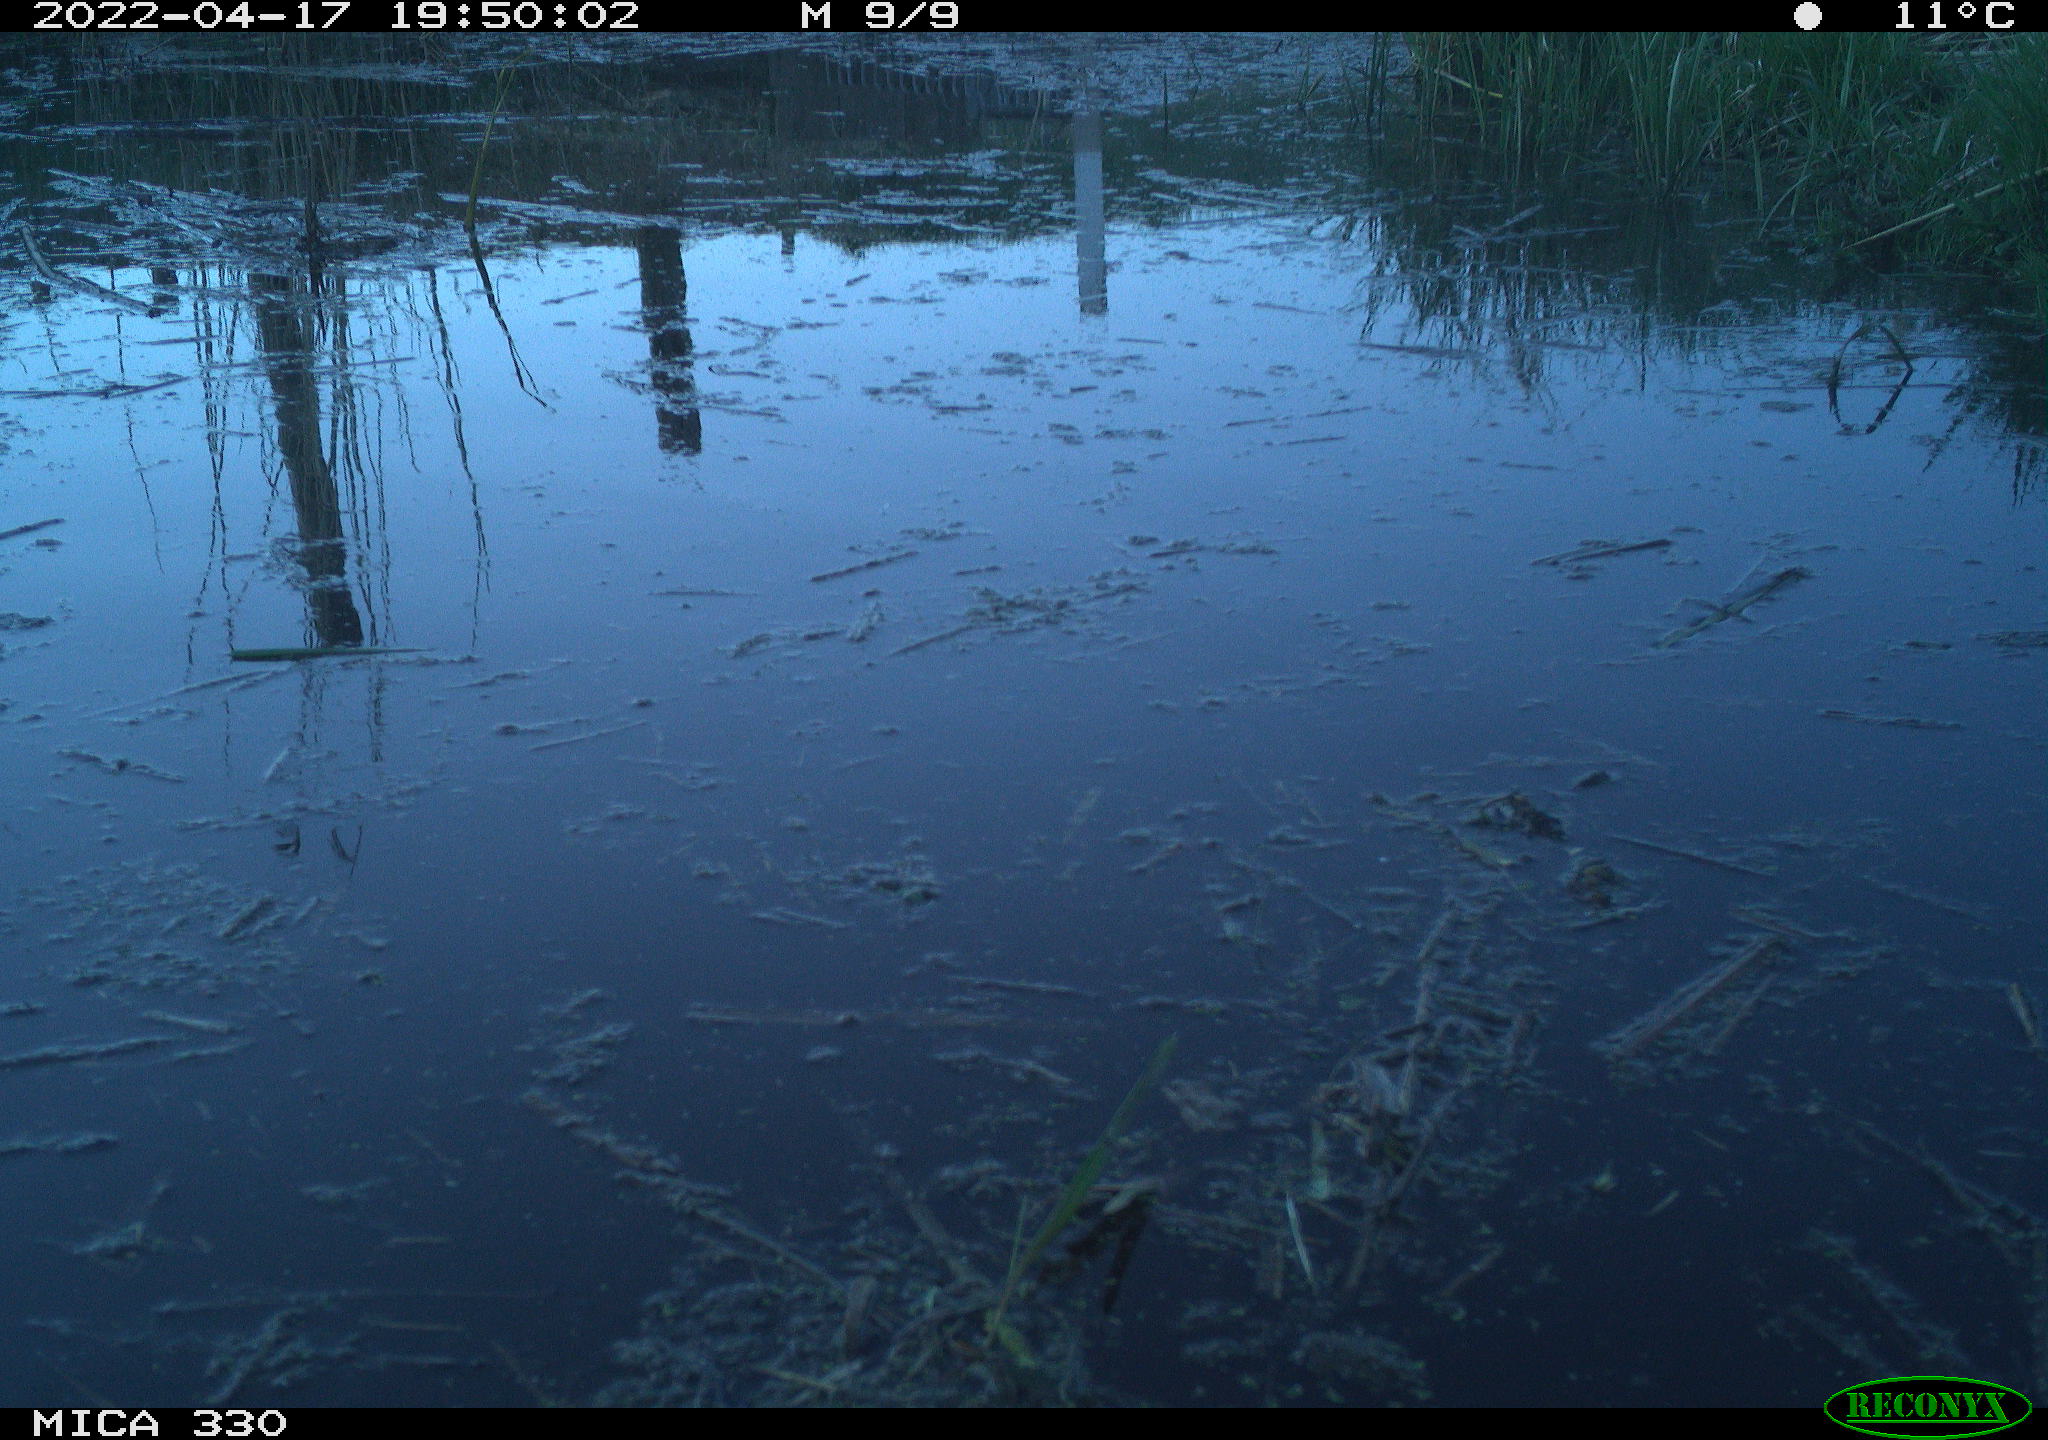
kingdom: Animalia
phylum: Chordata
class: Aves
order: Gruiformes
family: Rallidae
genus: Gallinula
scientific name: Gallinula chloropus
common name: Common moorhen
